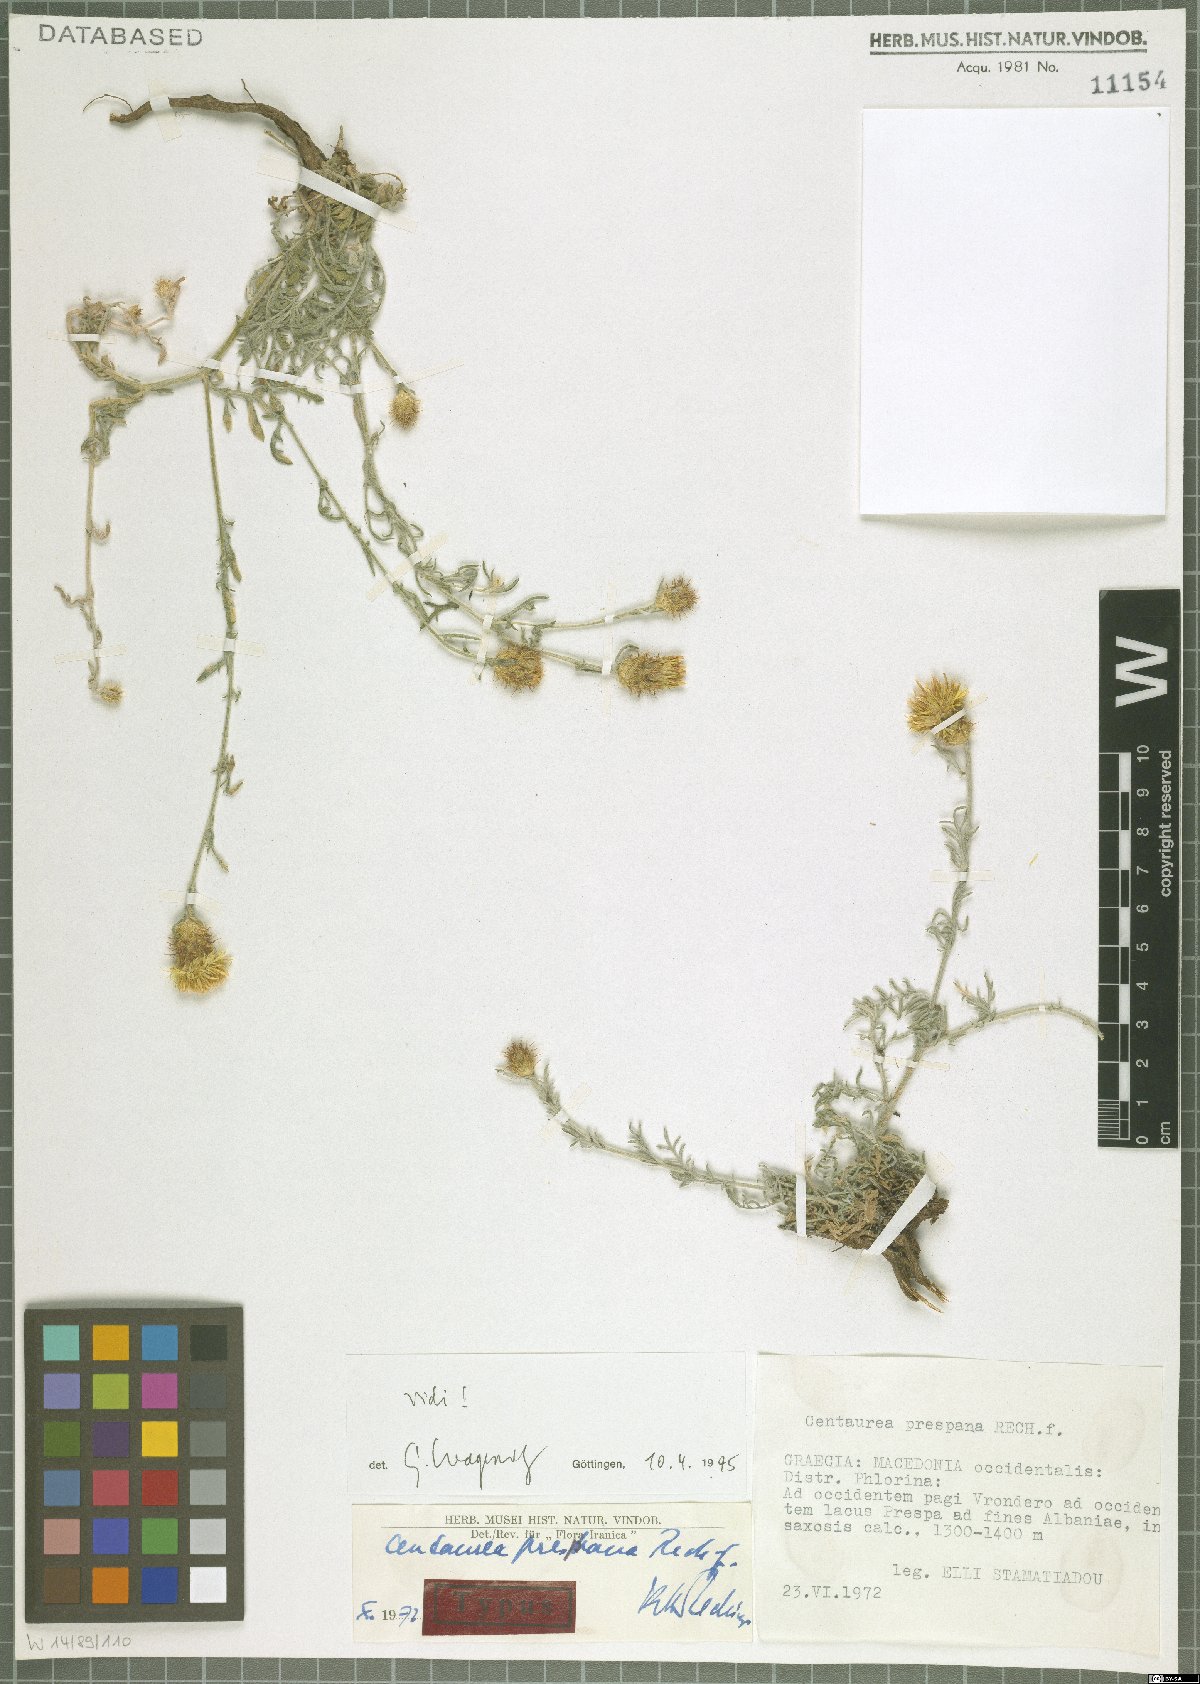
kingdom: Plantae
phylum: Tracheophyta
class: Magnoliopsida
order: Asterales
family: Asteraceae
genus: Centaurea
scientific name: Centaurea soskae
